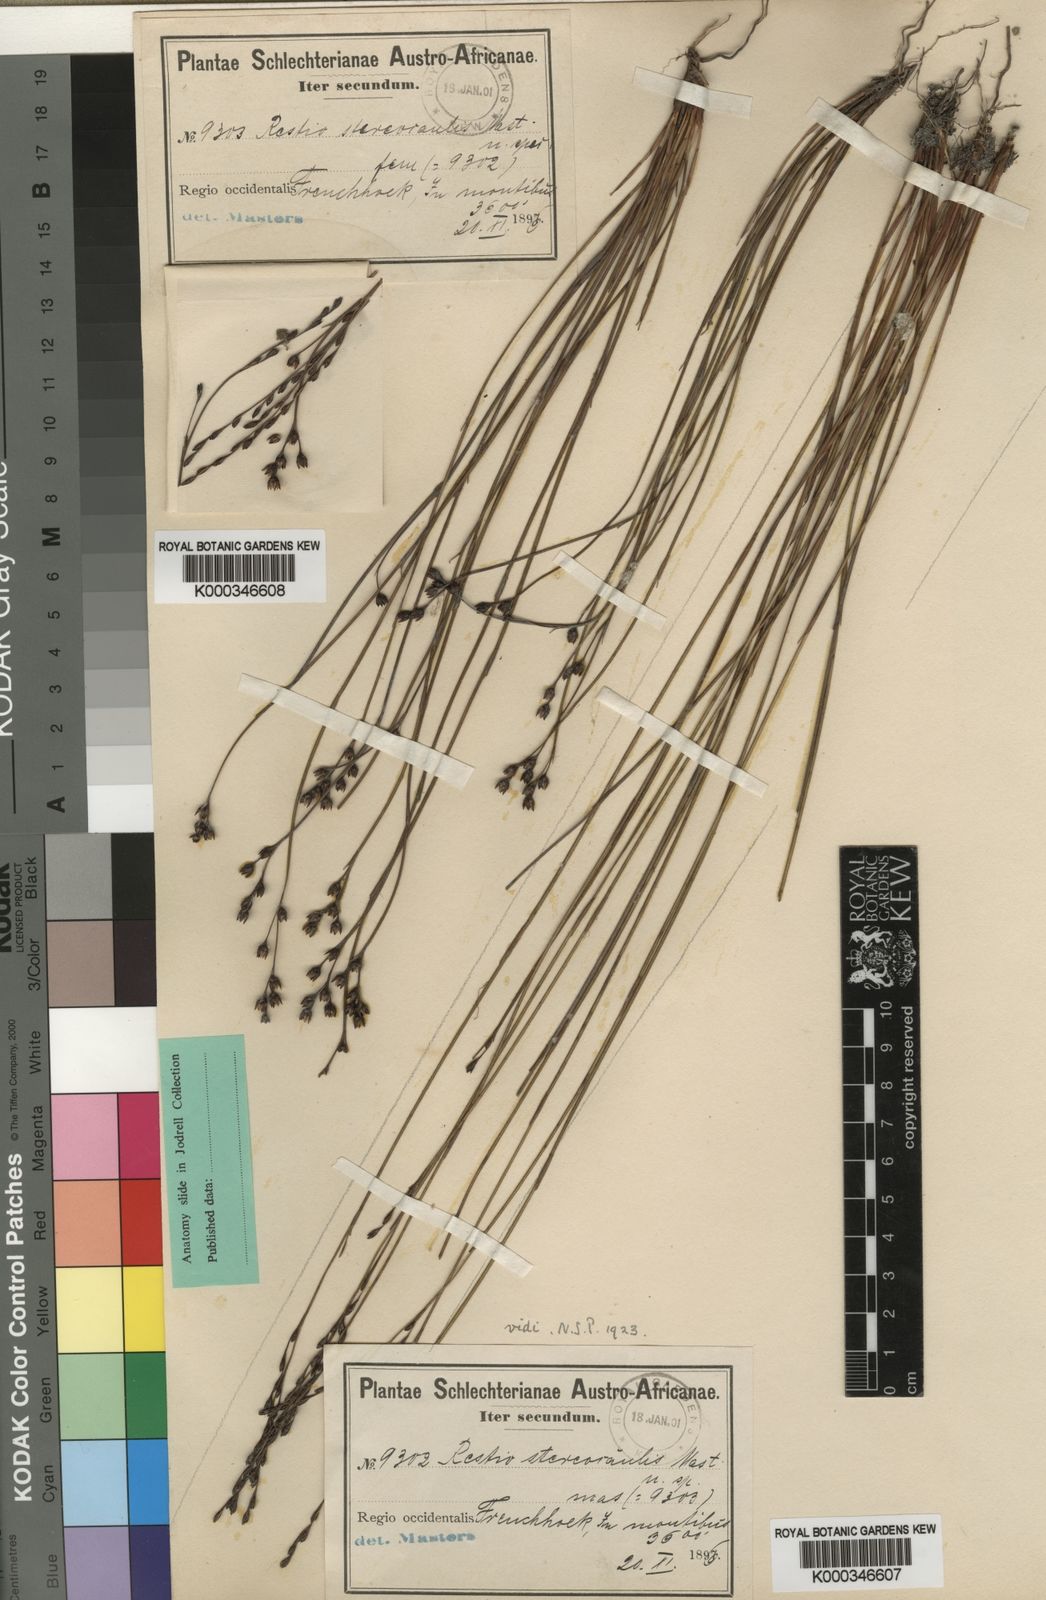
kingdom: Plantae
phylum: Tracheophyta
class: Liliopsida
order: Poales
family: Restionaceae
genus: Restio
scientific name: Restio stereocaulis
